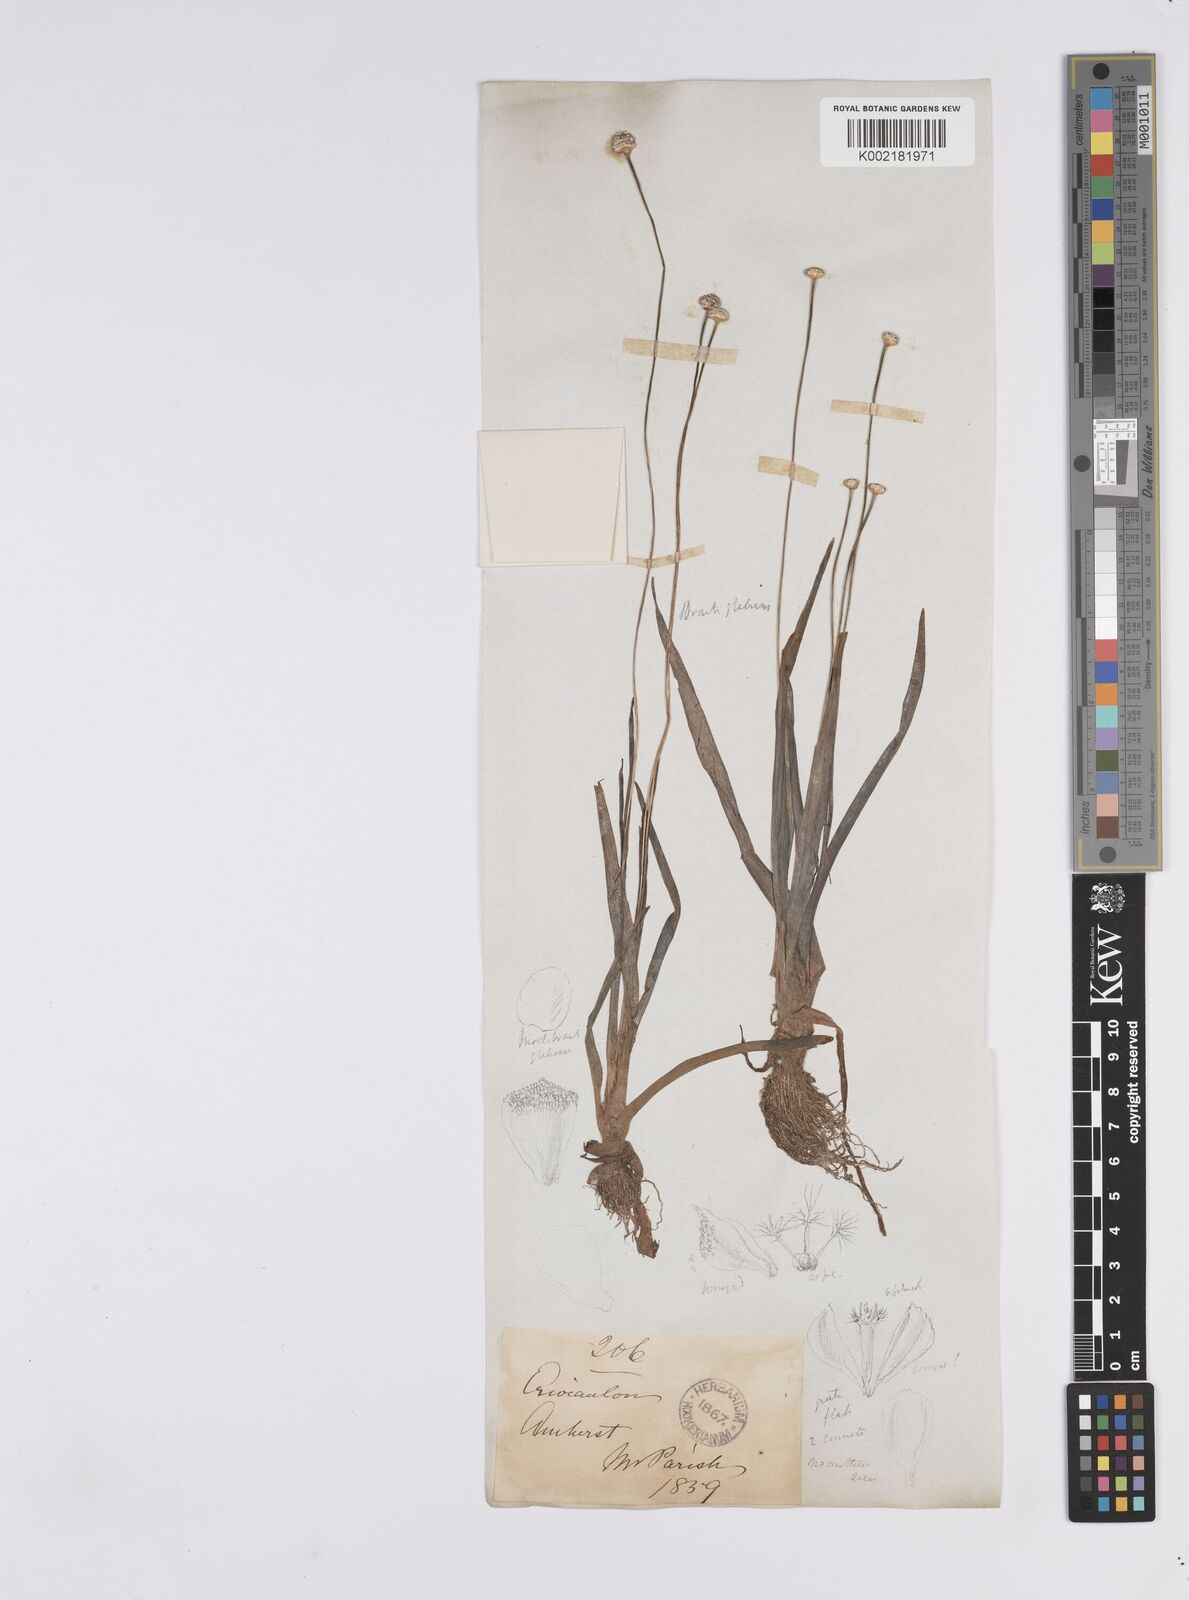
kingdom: Plantae
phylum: Tracheophyta
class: Liliopsida
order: Poales
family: Eriocaulaceae
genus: Eriocaulon
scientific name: Eriocaulon sexangulare
